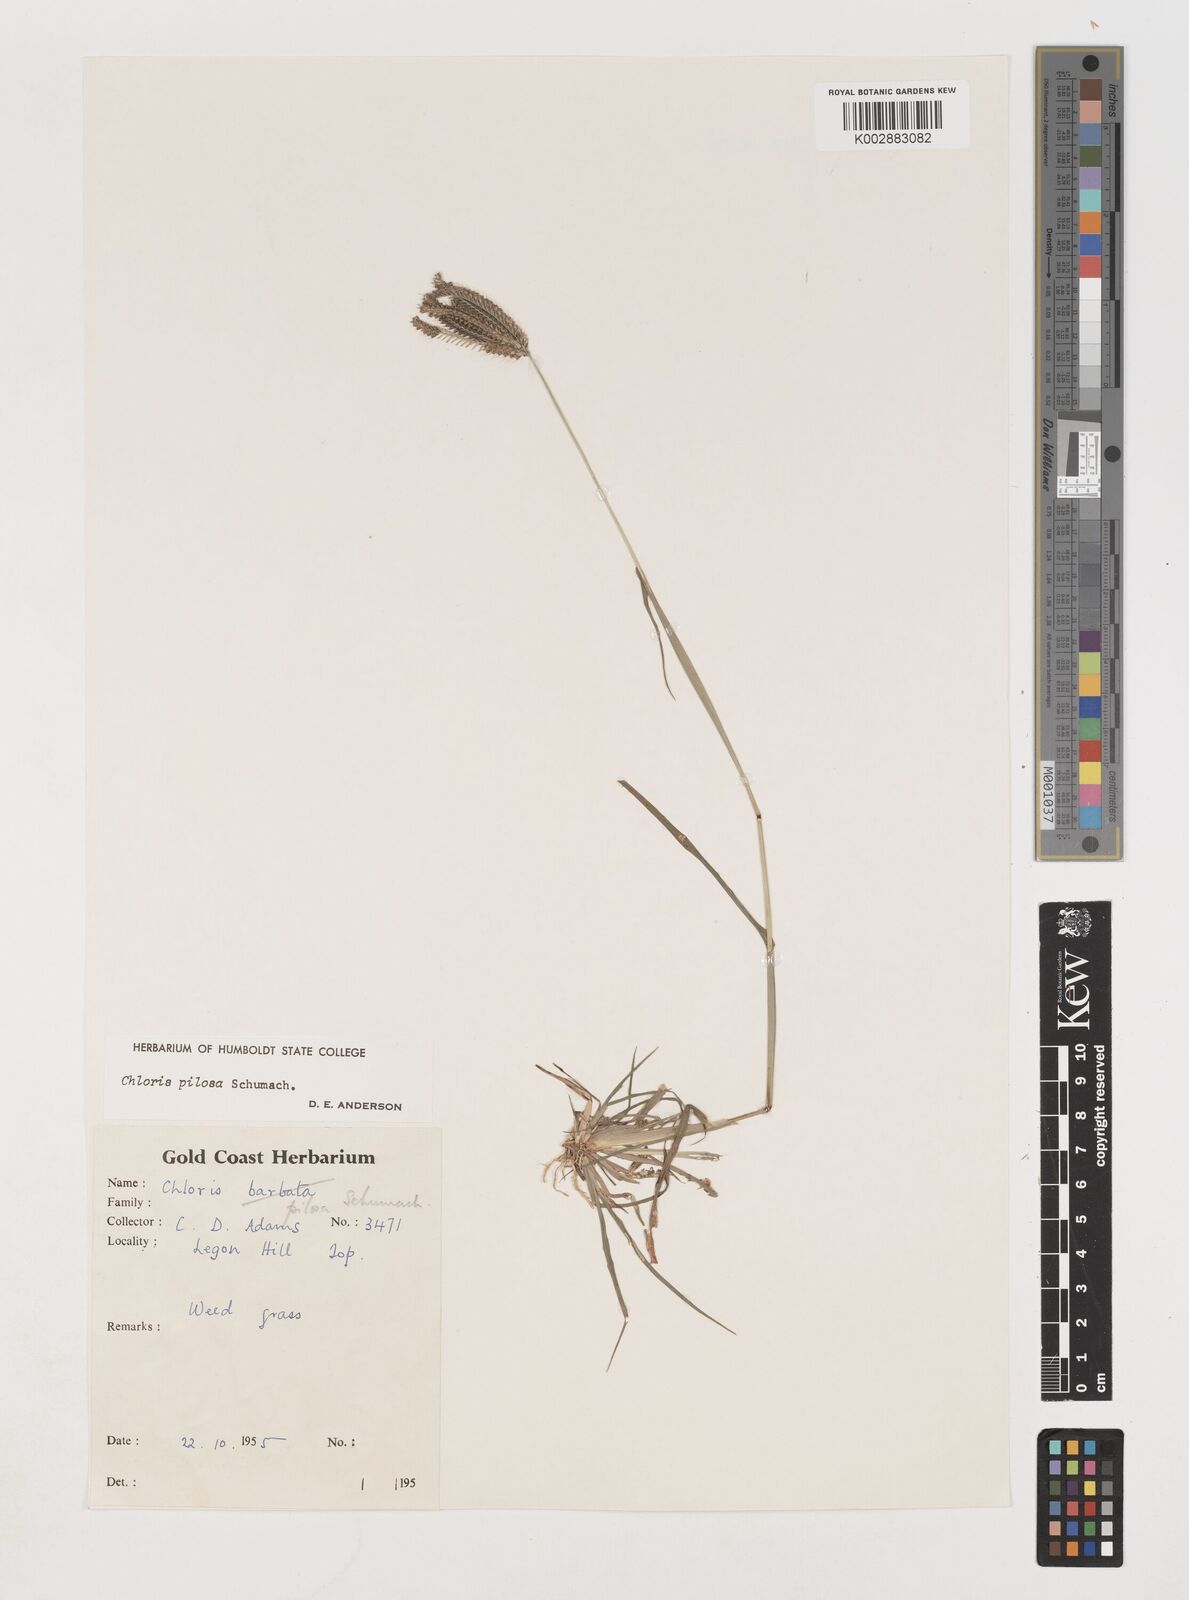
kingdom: Plantae
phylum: Tracheophyta
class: Liliopsida
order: Poales
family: Poaceae
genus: Chloris
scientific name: Chloris pilosa
